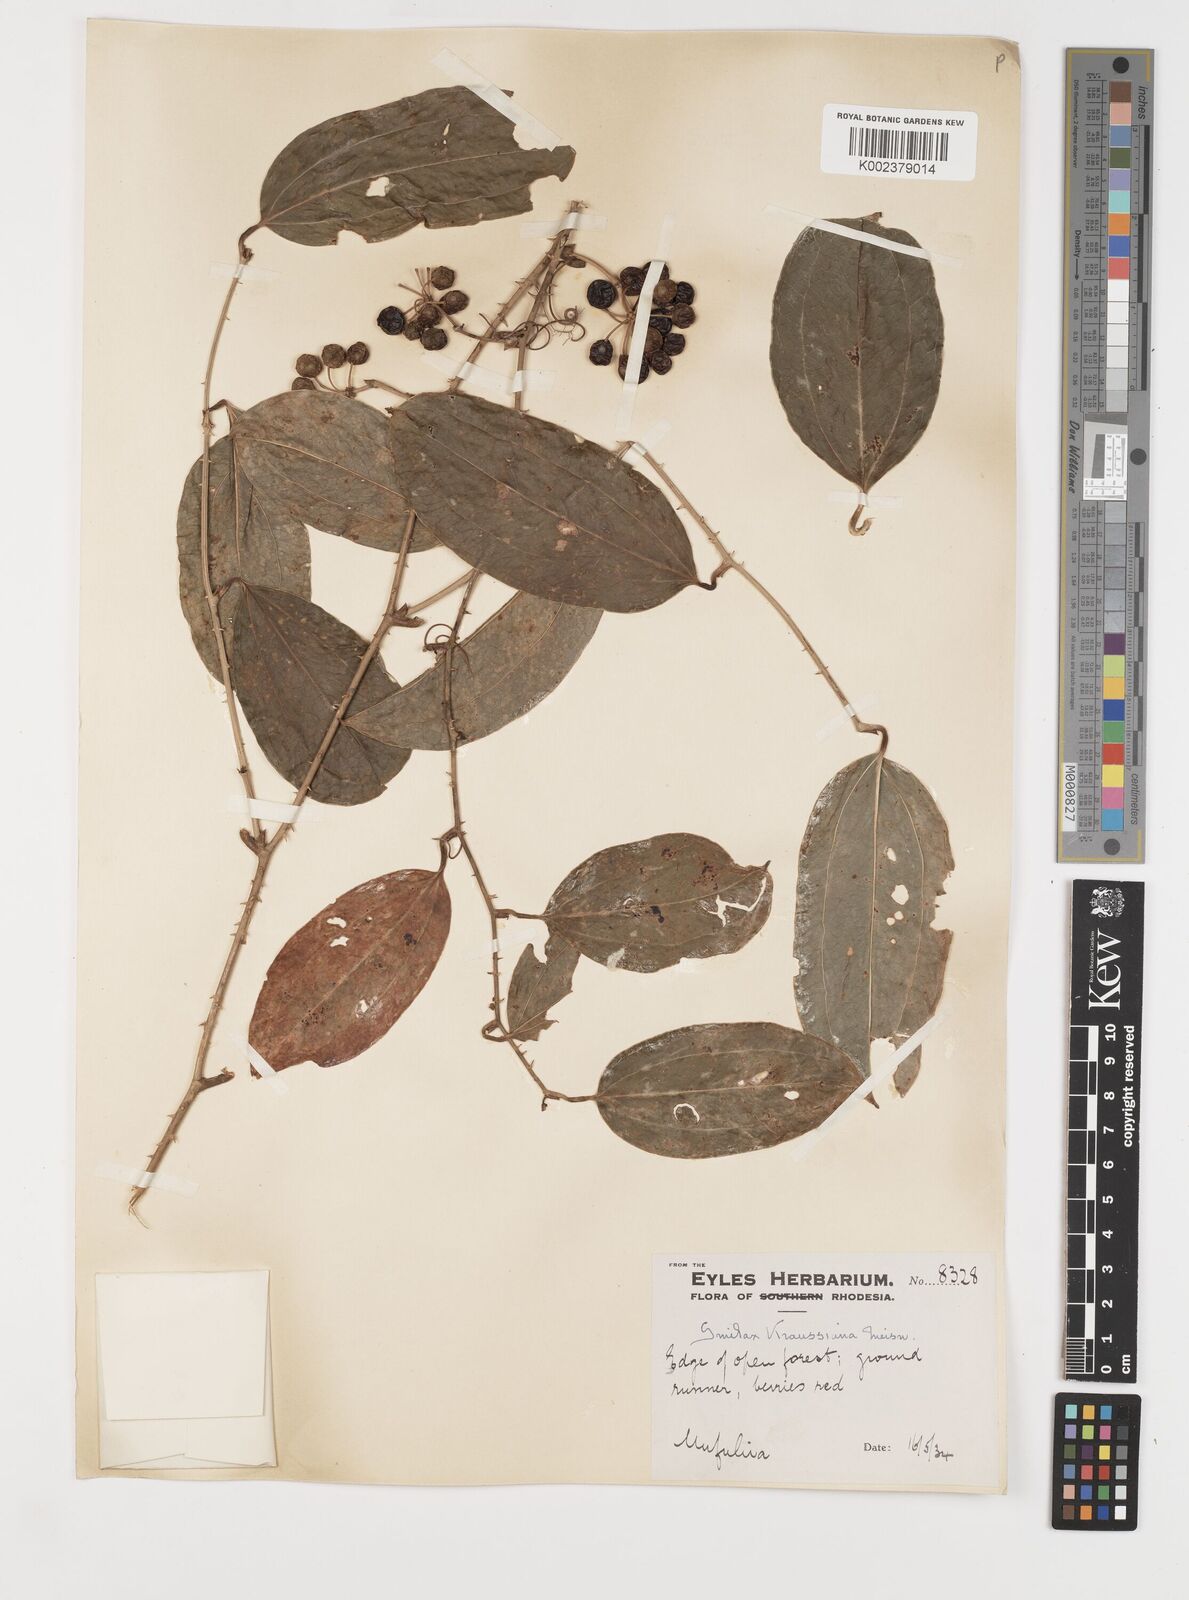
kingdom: Plantae
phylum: Tracheophyta
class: Liliopsida
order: Liliales
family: Smilacaceae
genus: Smilax
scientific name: Smilax anceps
